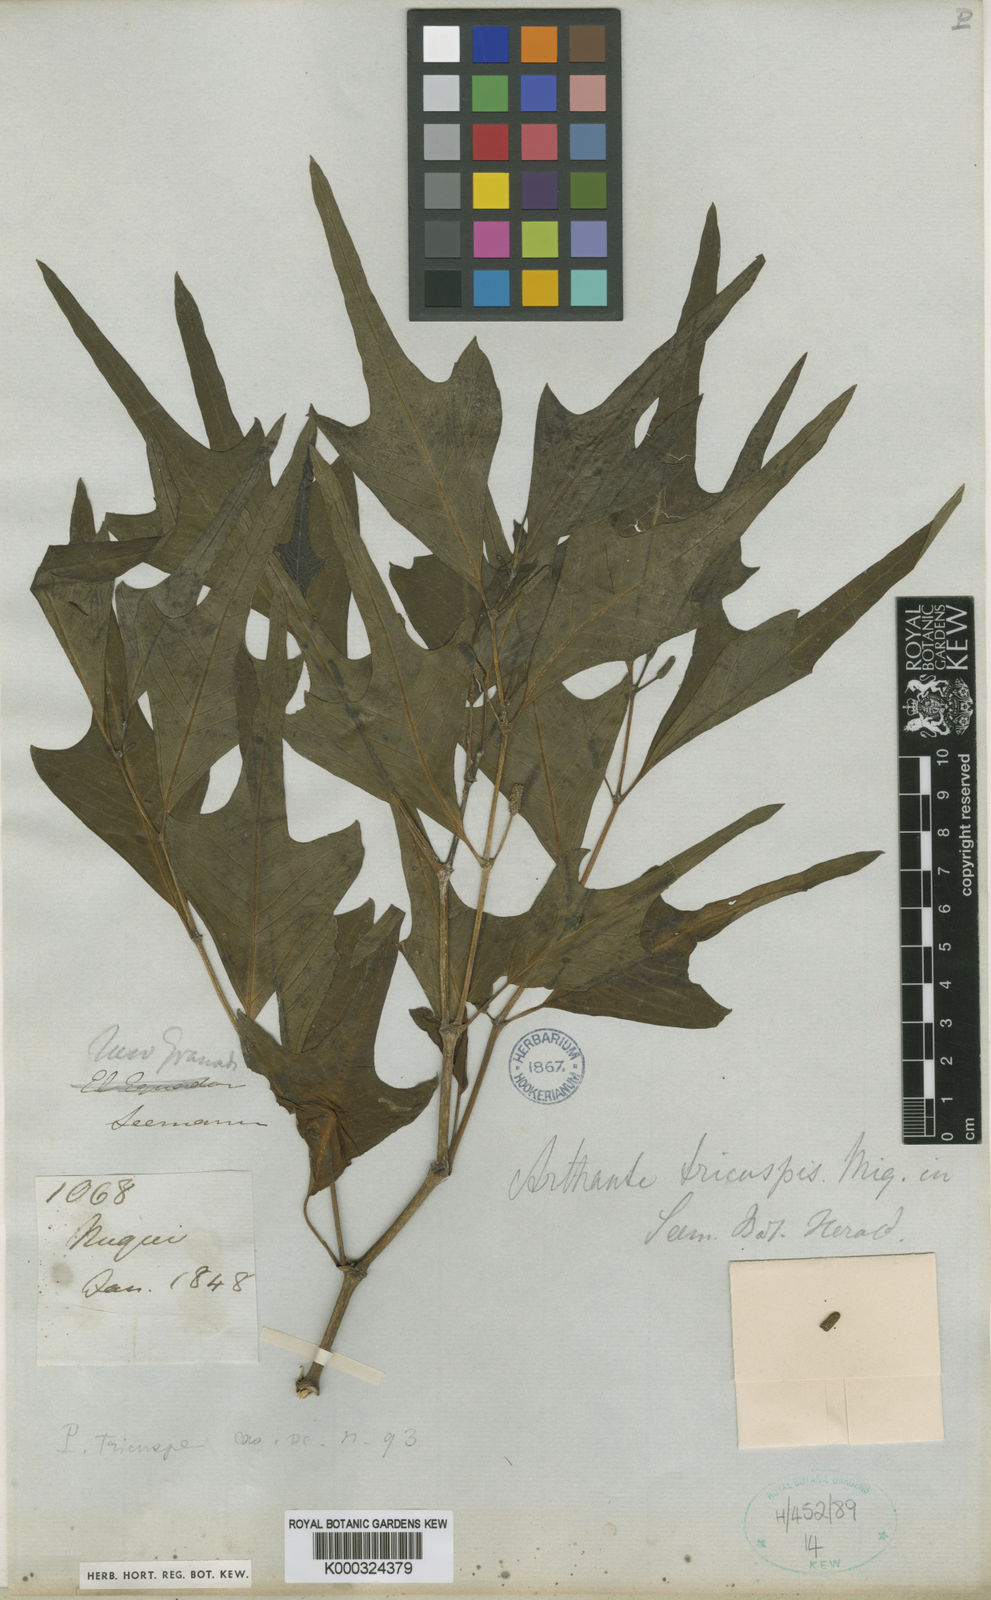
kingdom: Plantae
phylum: Tracheophyta
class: Magnoliopsida
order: Piperales
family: Piperaceae
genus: Piper
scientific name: Piper tricuspe
